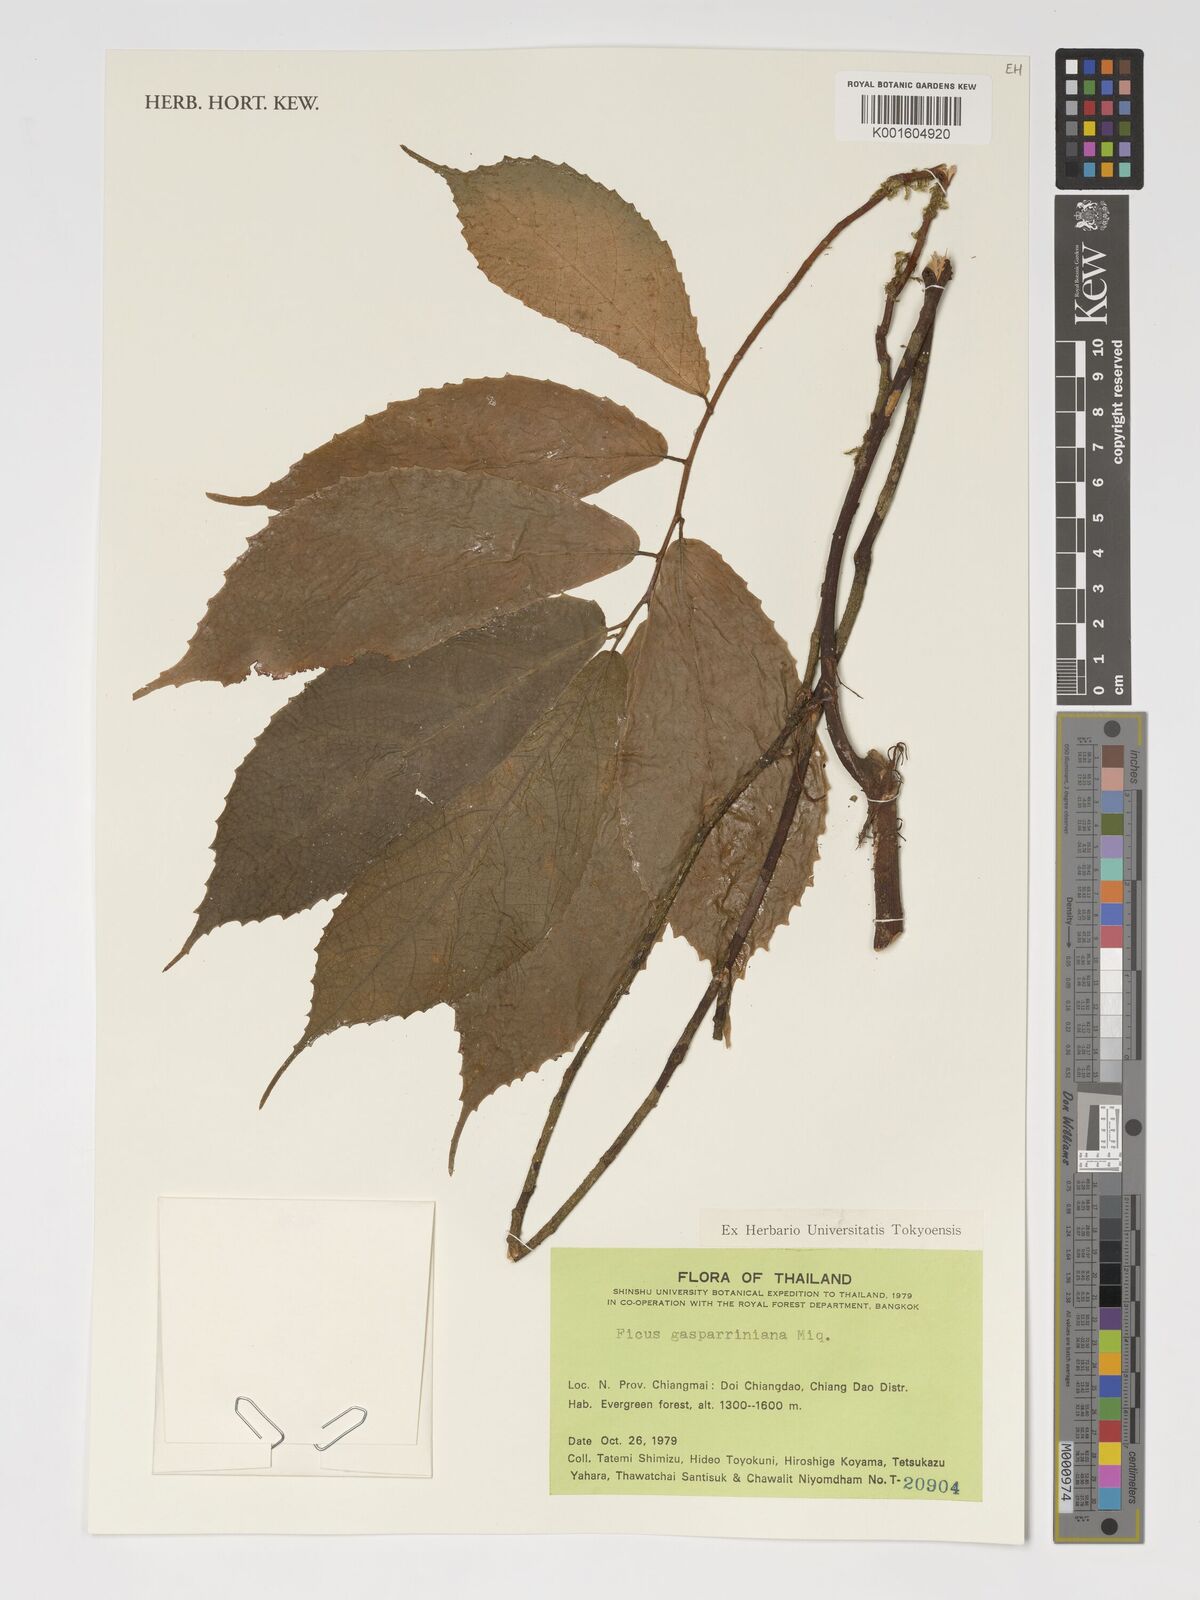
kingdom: Plantae
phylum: Tracheophyta
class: Magnoliopsida
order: Rosales
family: Moraceae
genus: Ficus
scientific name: Ficus neriifolia
